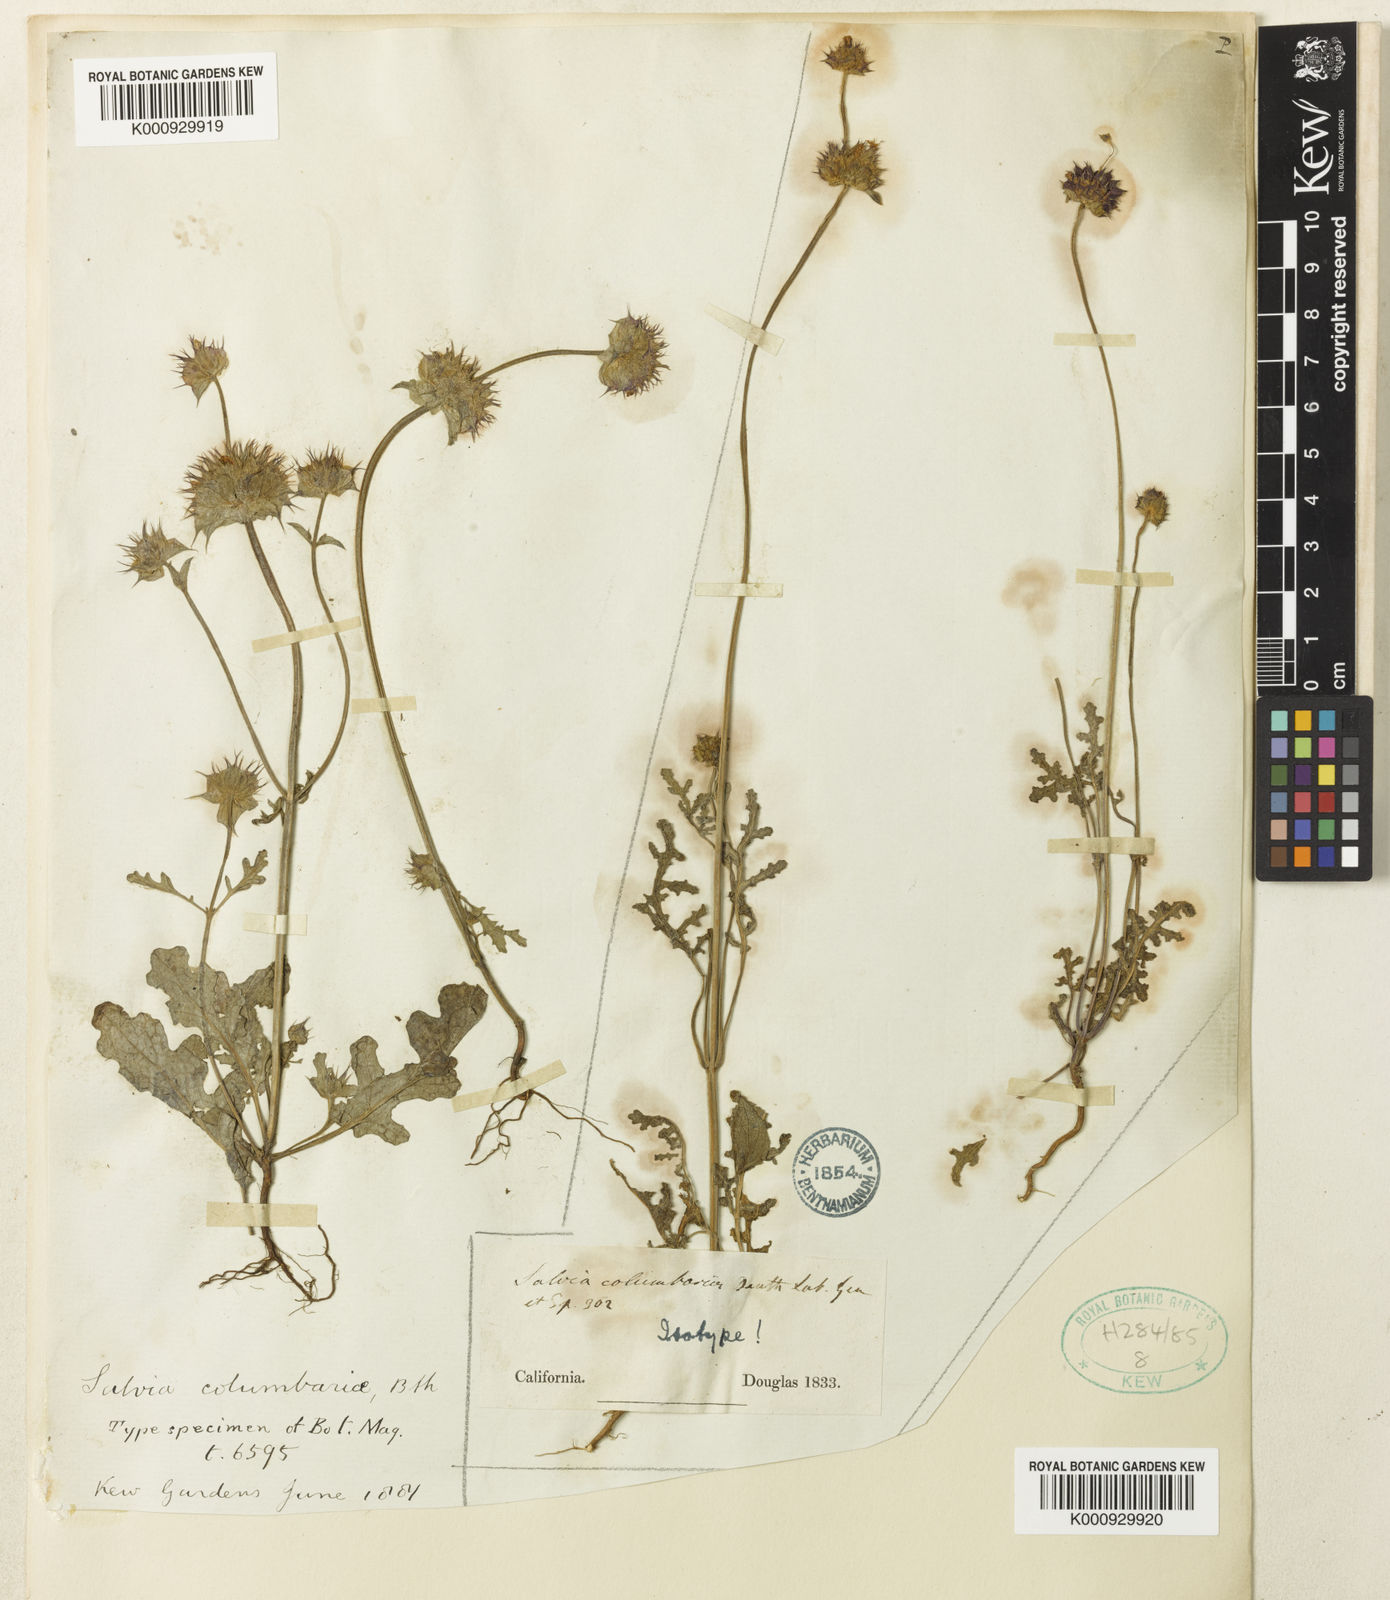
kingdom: Plantae
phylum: Tracheophyta
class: Magnoliopsida
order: Lamiales
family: Lamiaceae
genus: Salvia
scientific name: Salvia columbariae
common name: Chia
